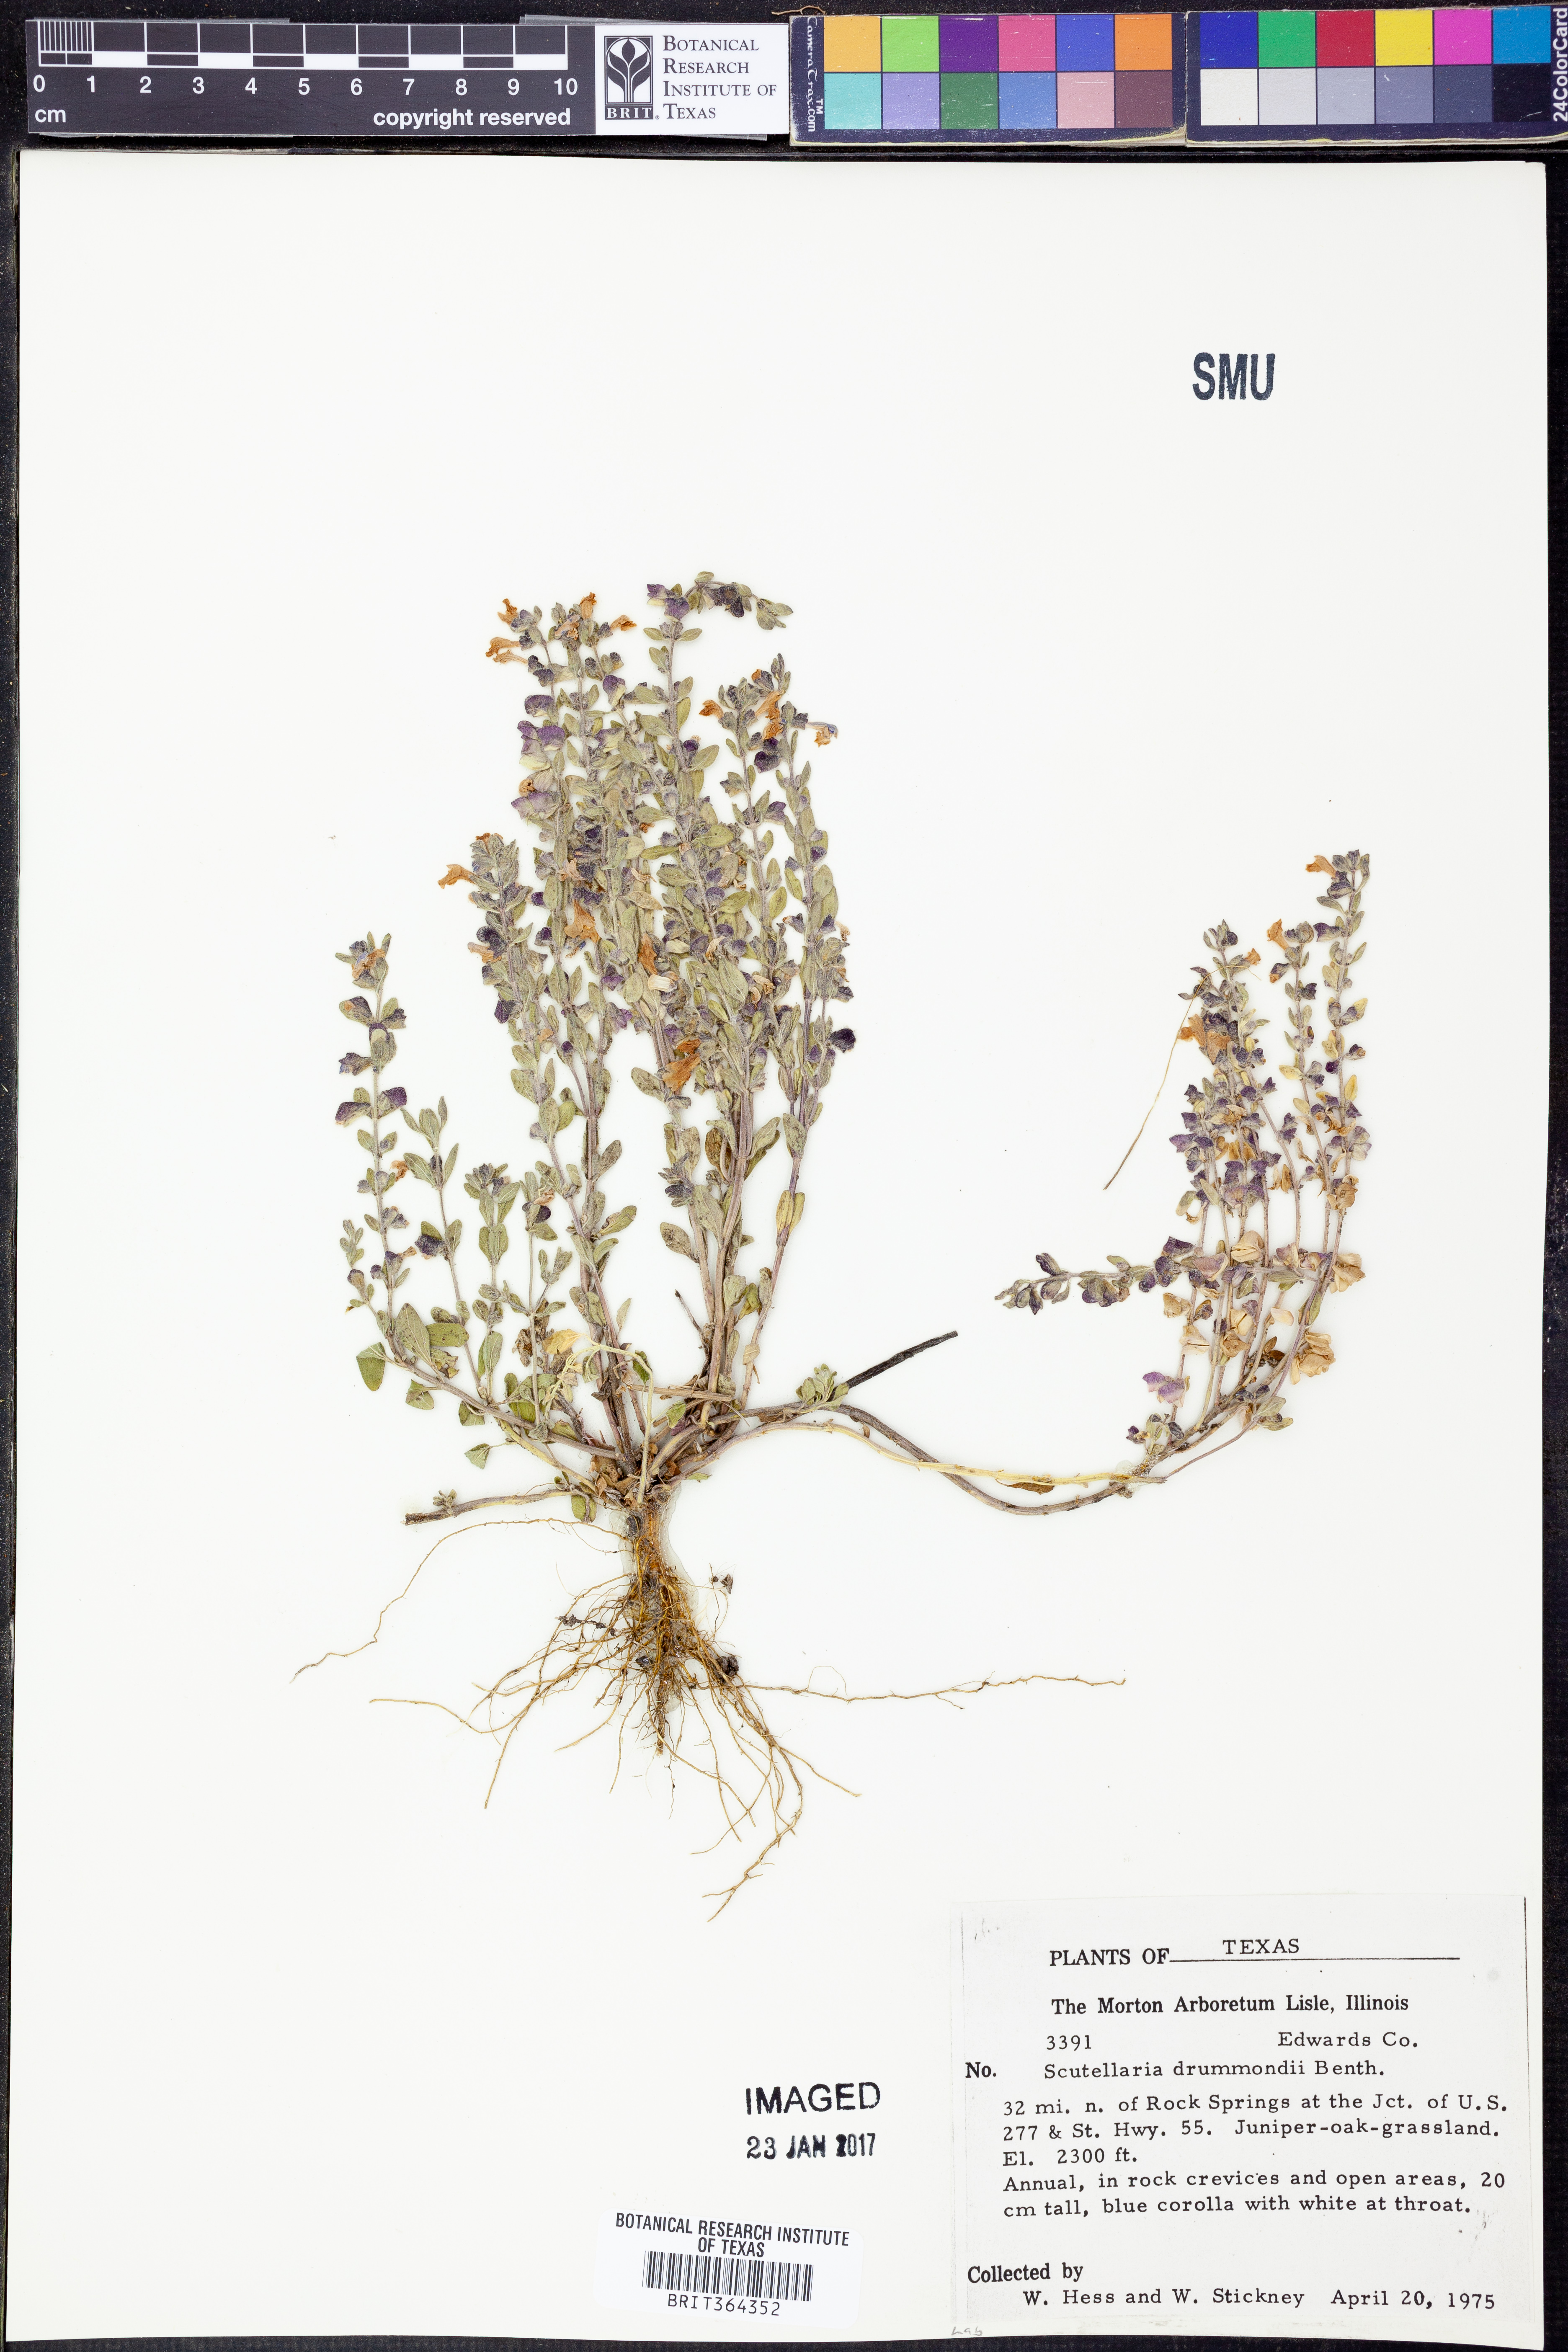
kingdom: Plantae
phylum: Tracheophyta
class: Magnoliopsida
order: Lamiales
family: Lamiaceae
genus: Scutellaria
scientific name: Scutellaria drummondii
